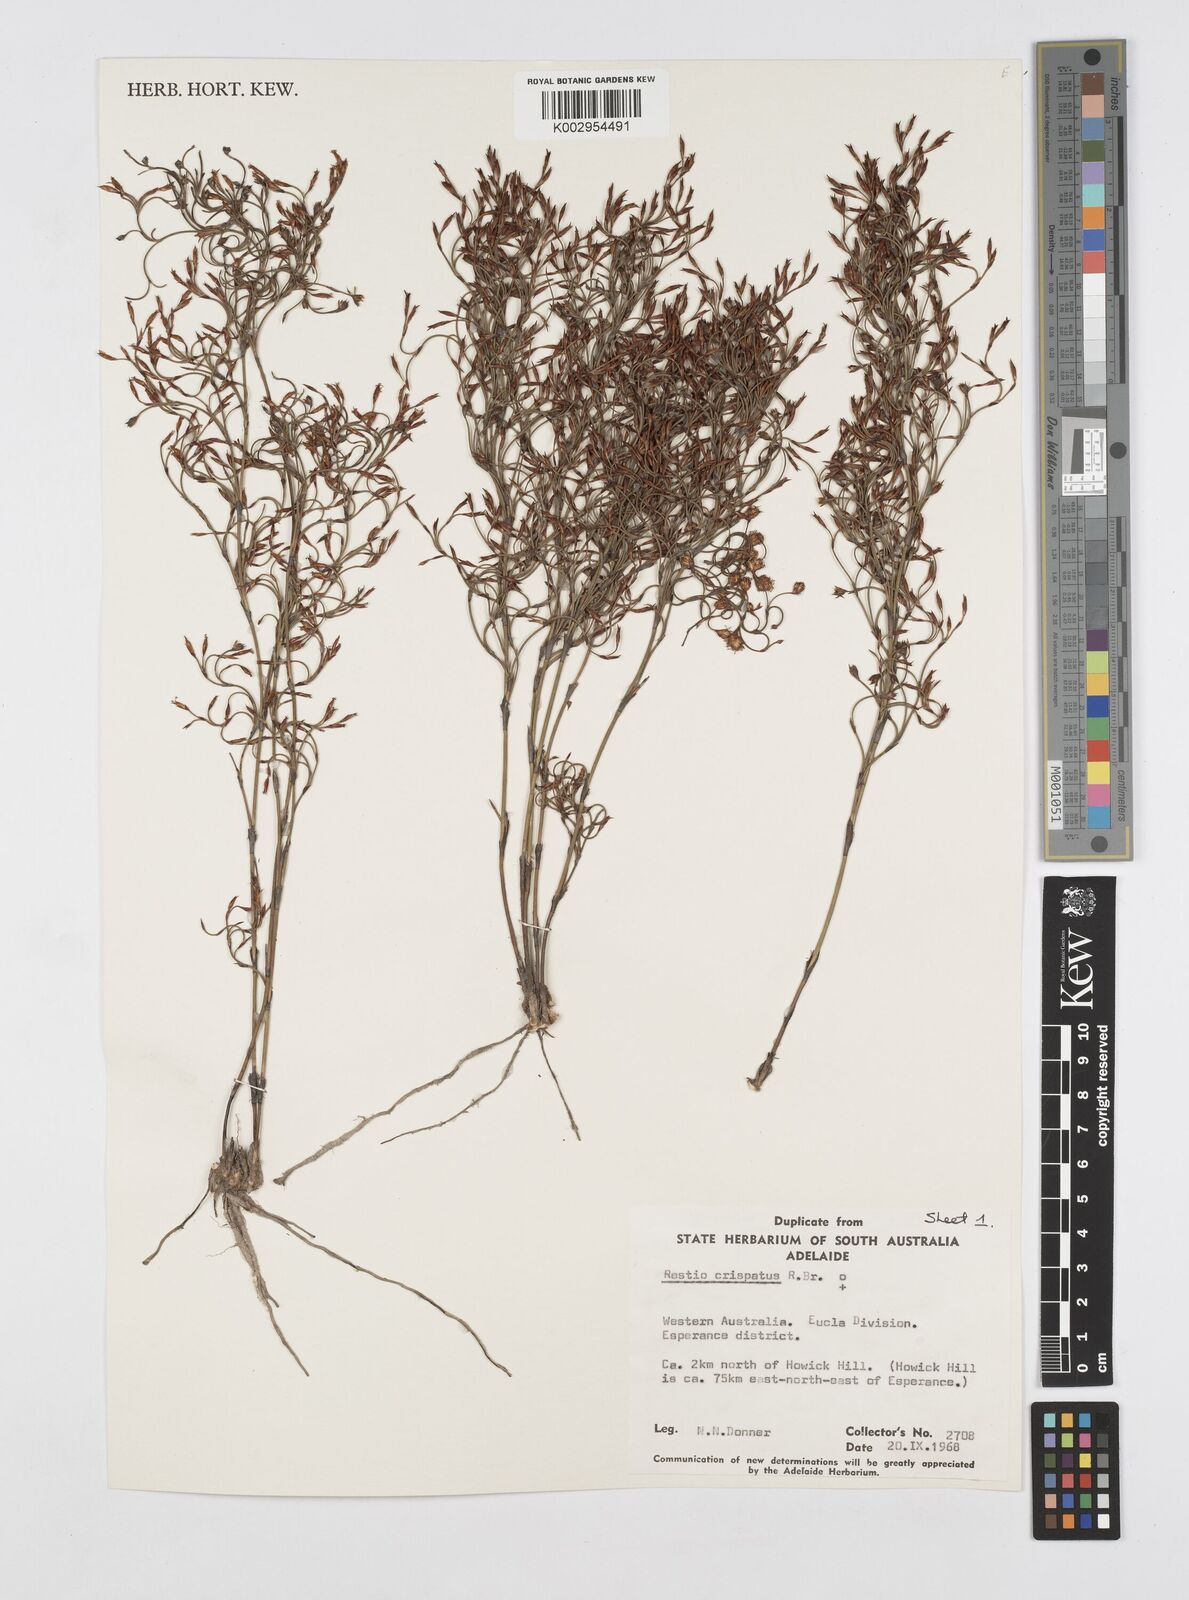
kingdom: Plantae
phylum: Tracheophyta
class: Liliopsida
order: Poales
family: Restionaceae
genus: Chordifex
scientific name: Chordifex crispatus
